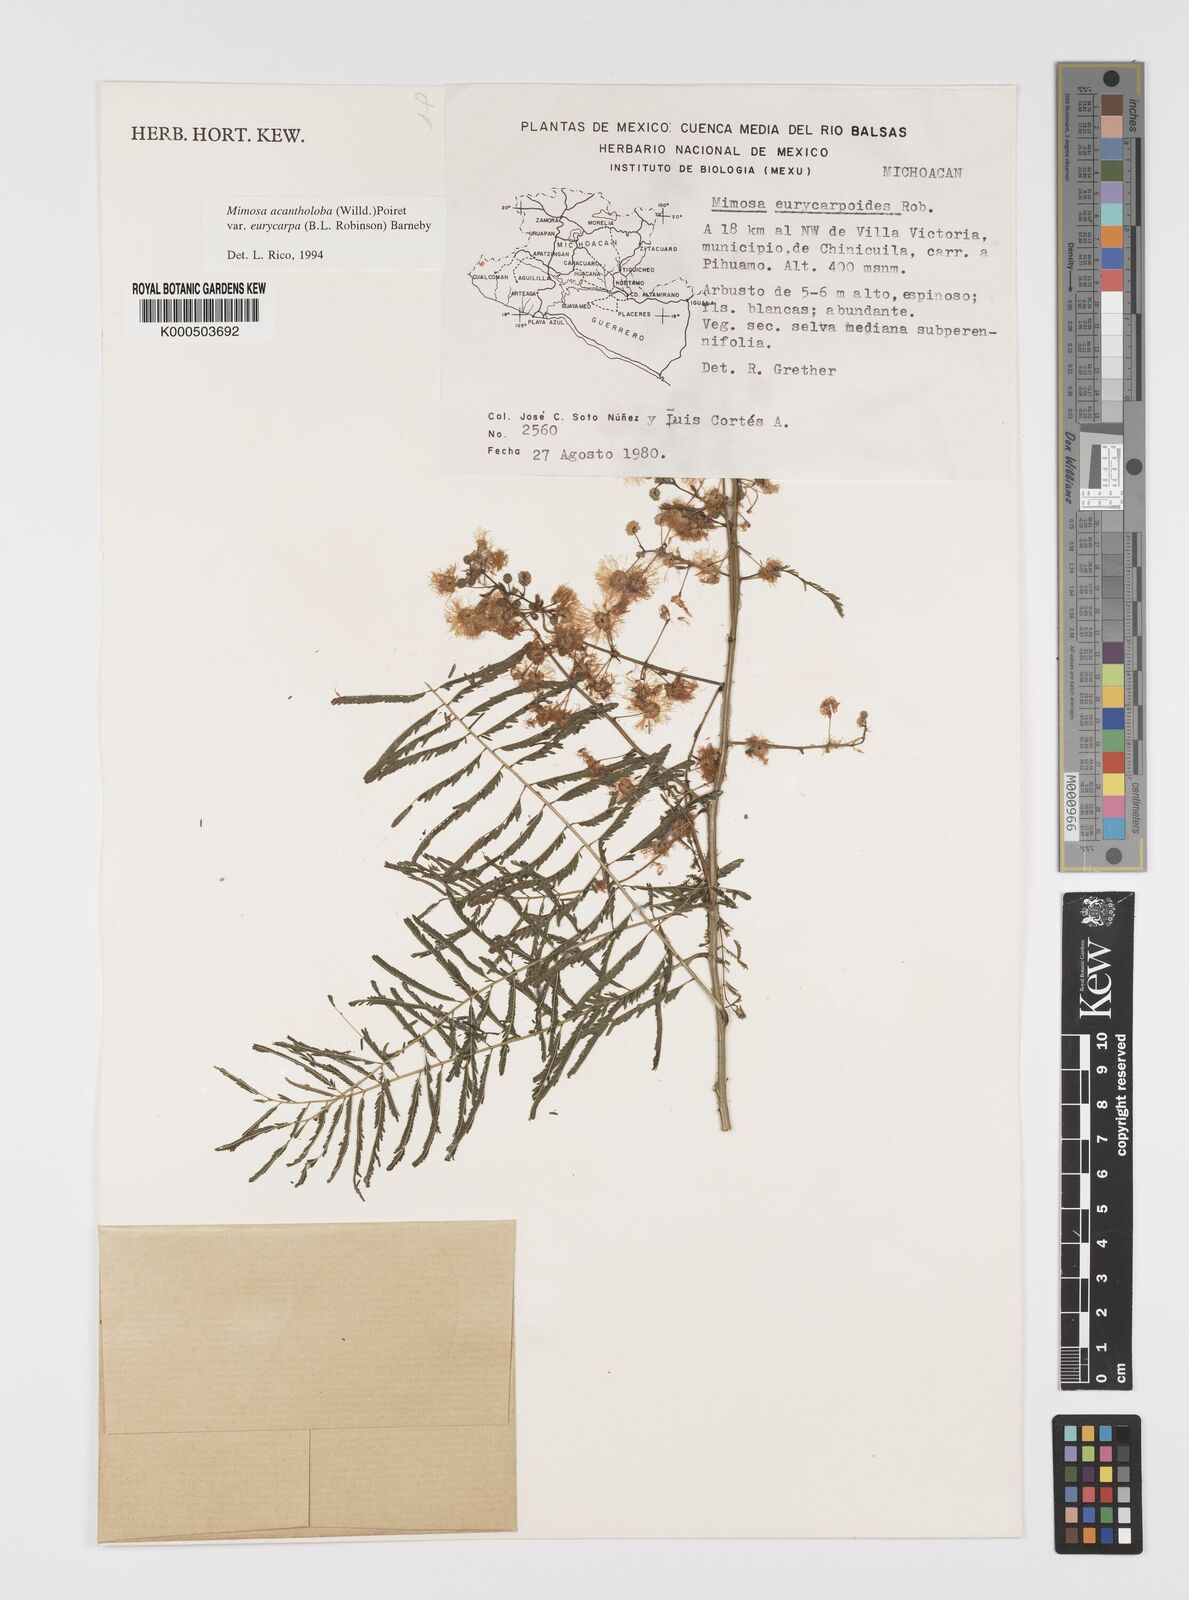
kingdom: Plantae
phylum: Tracheophyta
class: Magnoliopsida
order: Fabales
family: Fabaceae
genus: Mimosa
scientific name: Mimosa acantholoba
